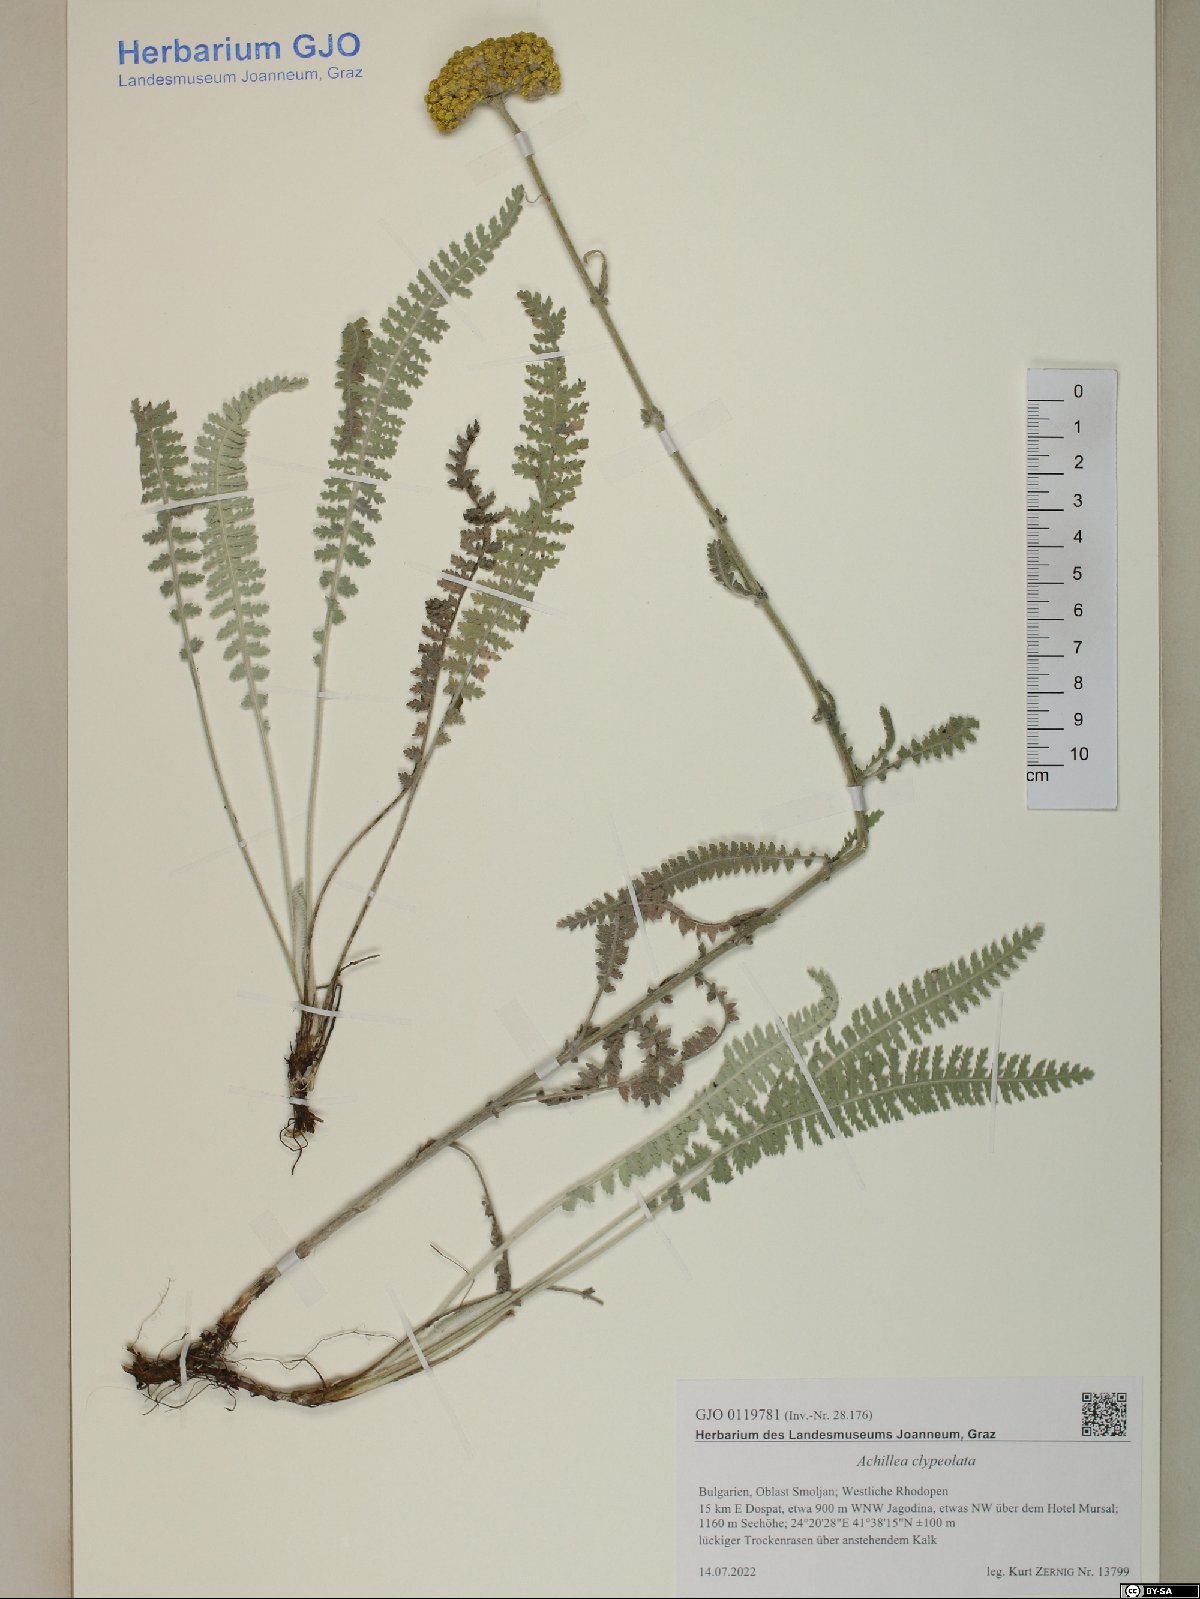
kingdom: Plantae
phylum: Tracheophyta
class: Magnoliopsida
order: Asterales
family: Asteraceae
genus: Achillea
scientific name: Achillea clypeolata
